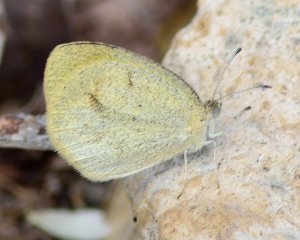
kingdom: Animalia
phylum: Arthropoda
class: Insecta
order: Lepidoptera
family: Pieridae
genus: Eurema
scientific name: Eurema daira
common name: Barred Yellow
